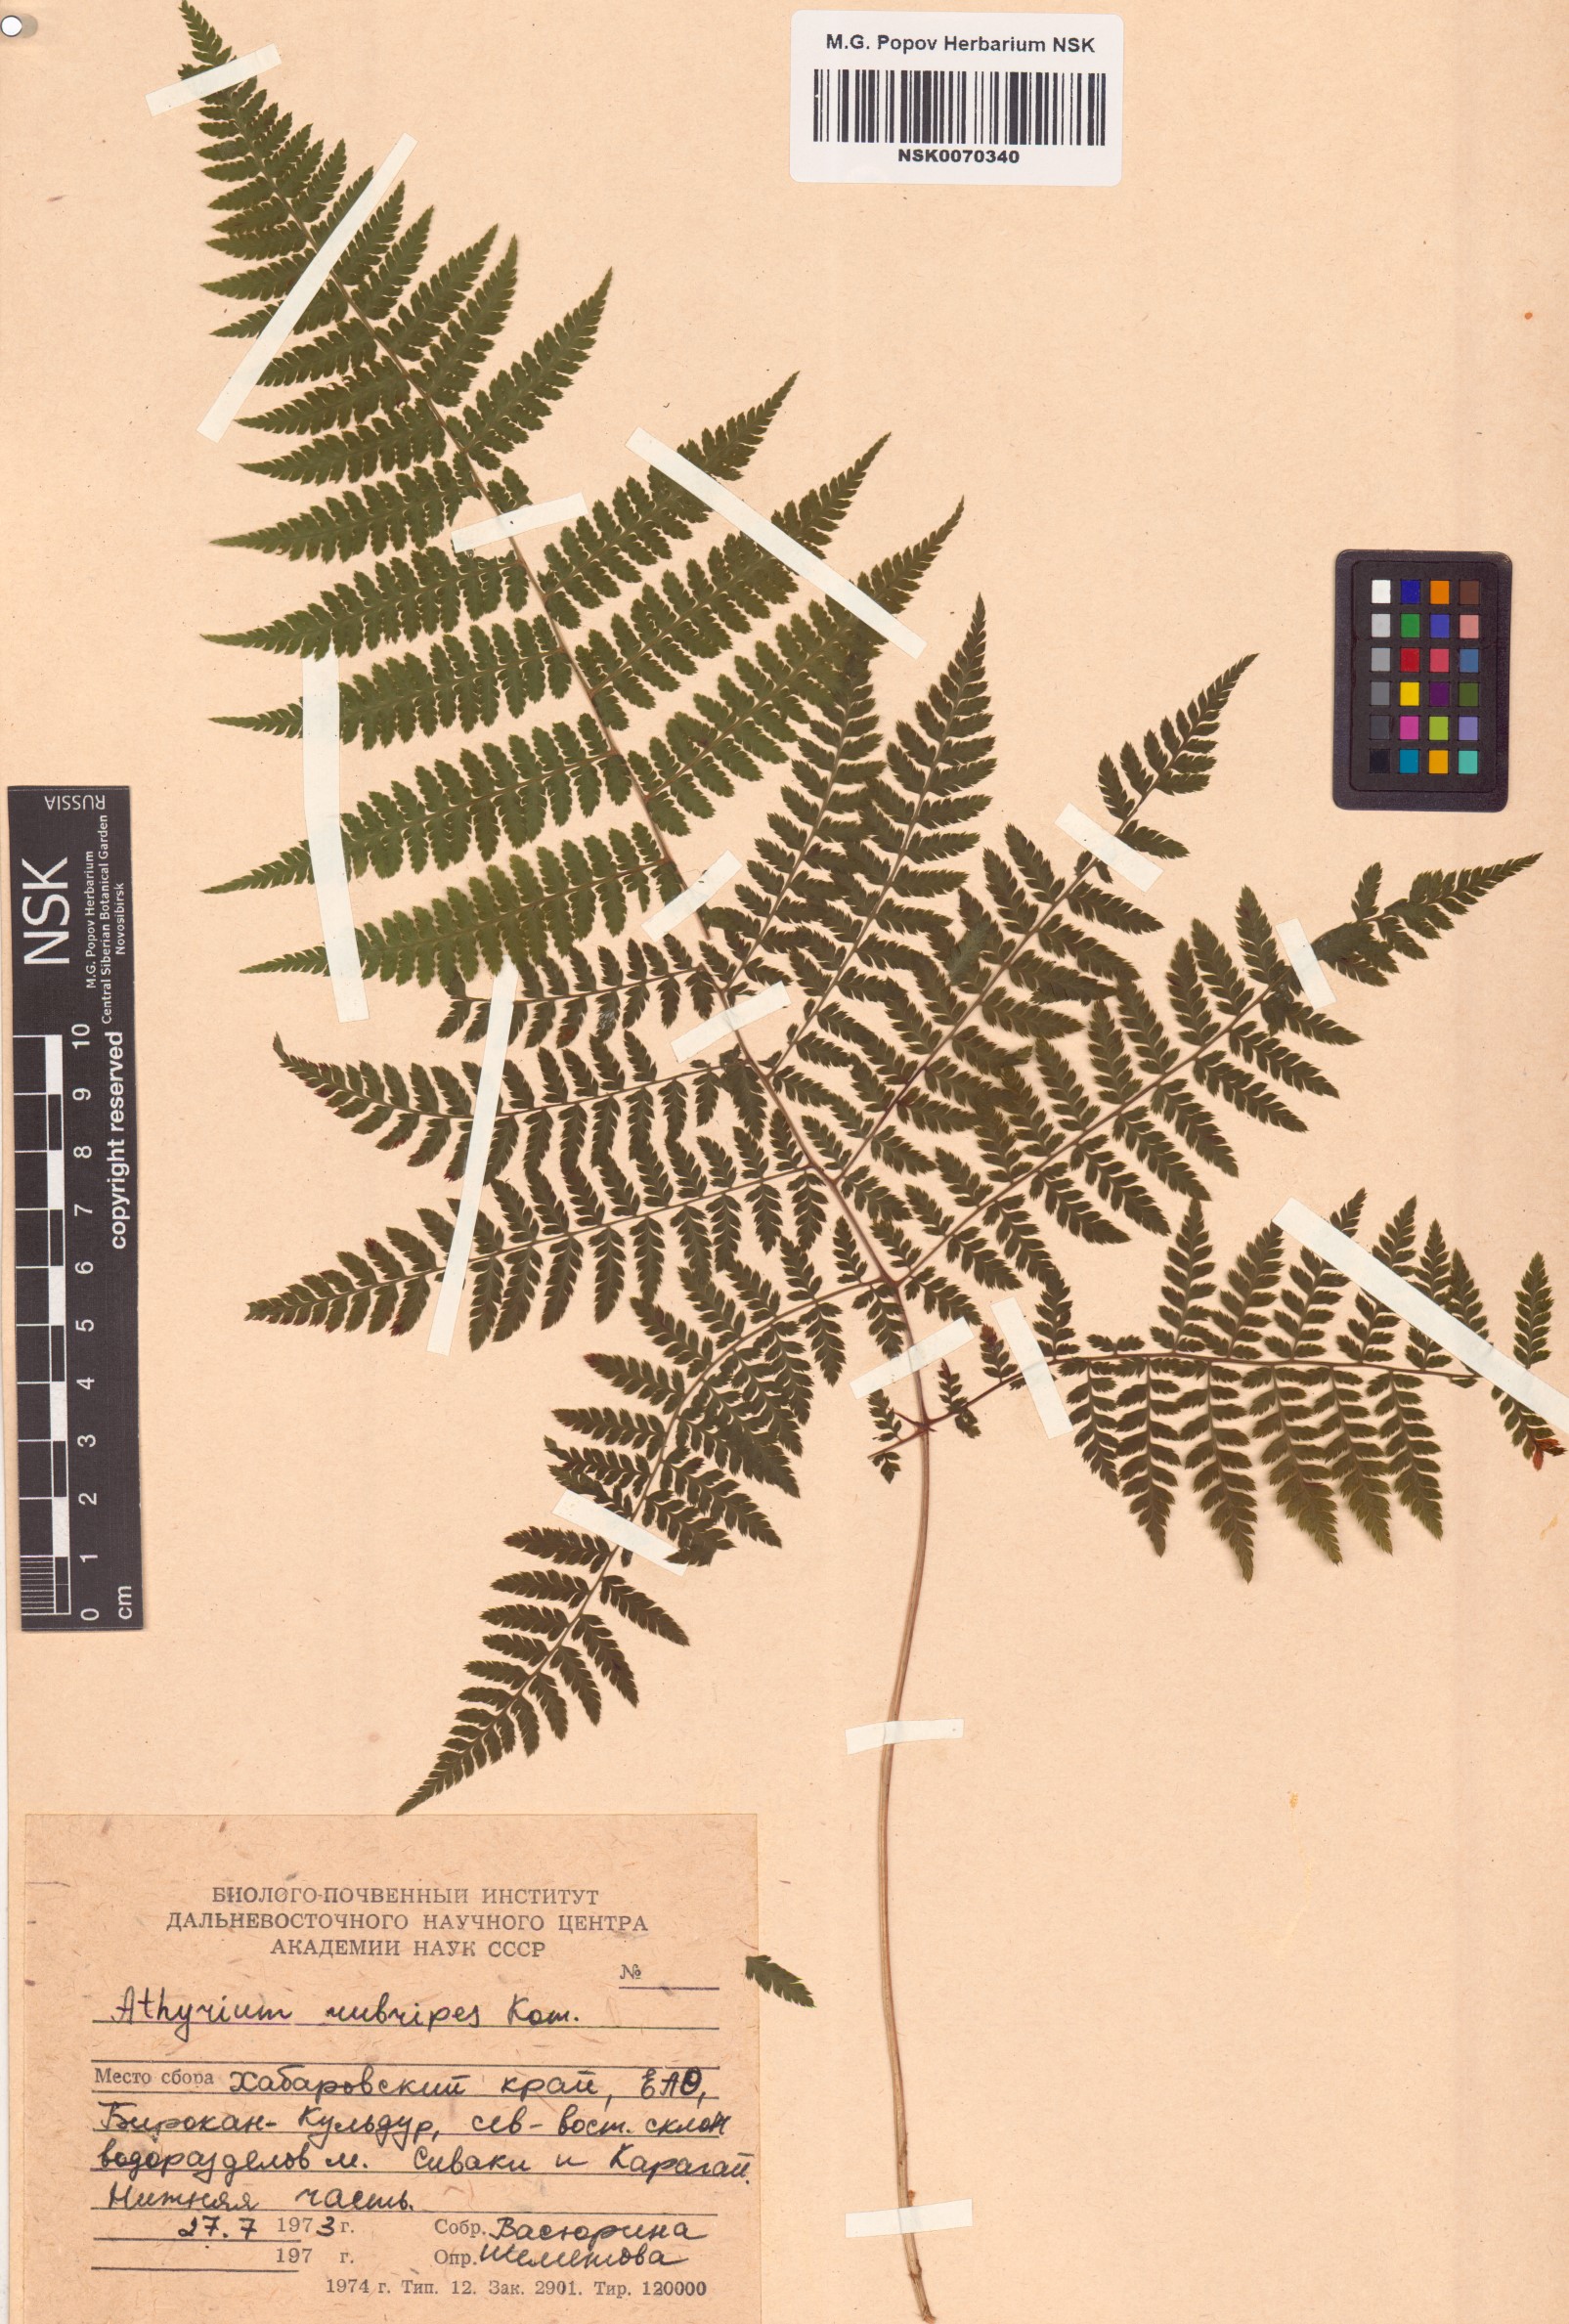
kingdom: Plantae
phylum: Tracheophyta
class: Polypodiopsida
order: Polypodiales
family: Athyriaceae
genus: Athyrium
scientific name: Athyrium rubripes
